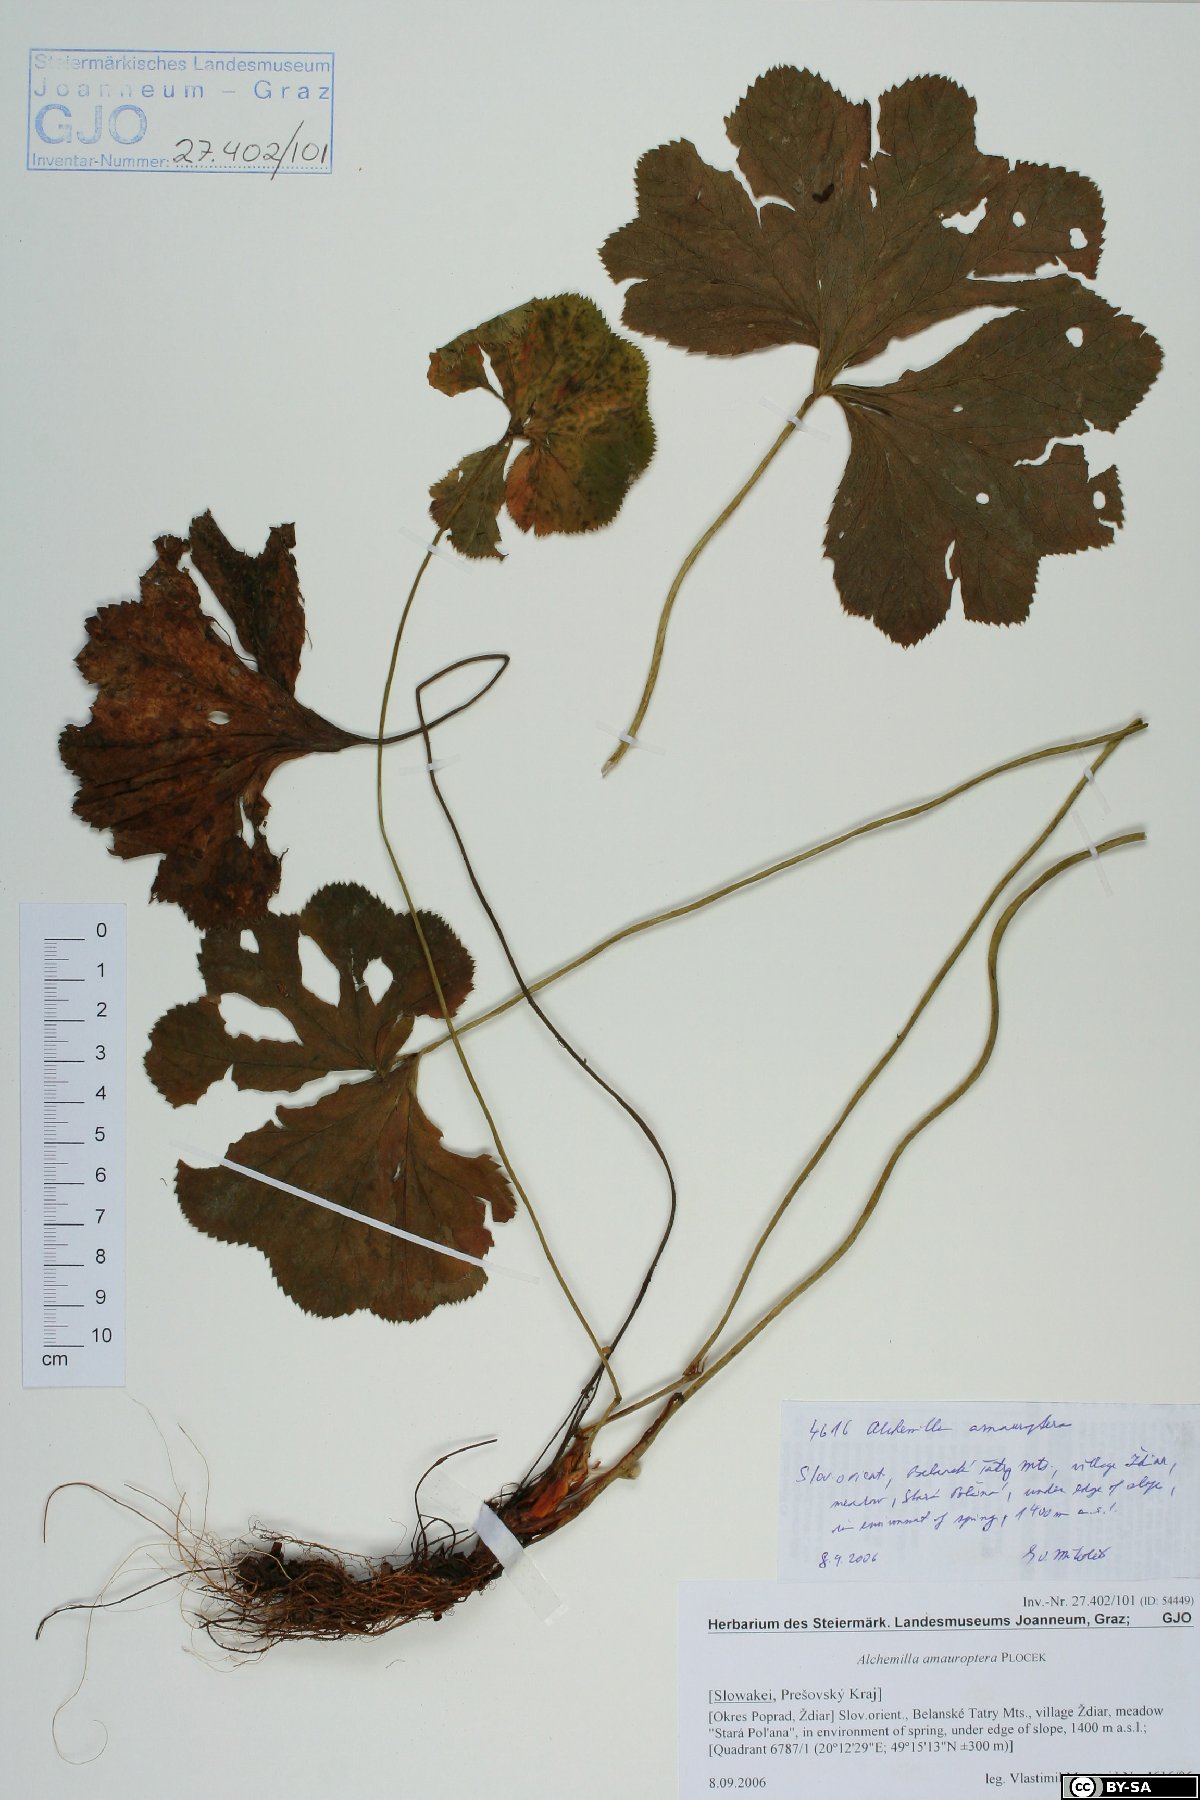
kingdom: Plantae
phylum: Tracheophyta
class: Magnoliopsida
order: Rosales
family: Rosaceae
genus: Alchemilla
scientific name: Alchemilla amauroptera
